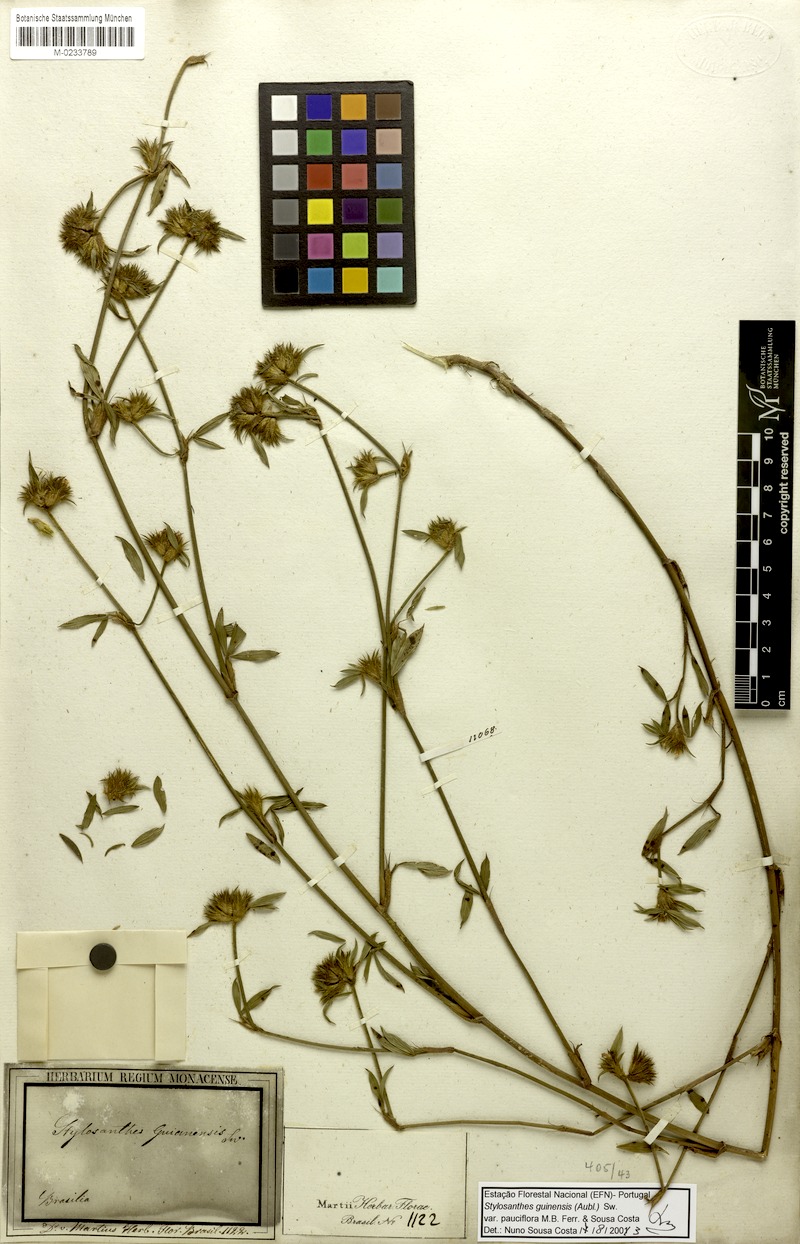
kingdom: Plantae
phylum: Tracheophyta
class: Magnoliopsida
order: Fabales
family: Fabaceae
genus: Stylosanthes
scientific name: Stylosanthes guianensis
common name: Pencil flower
